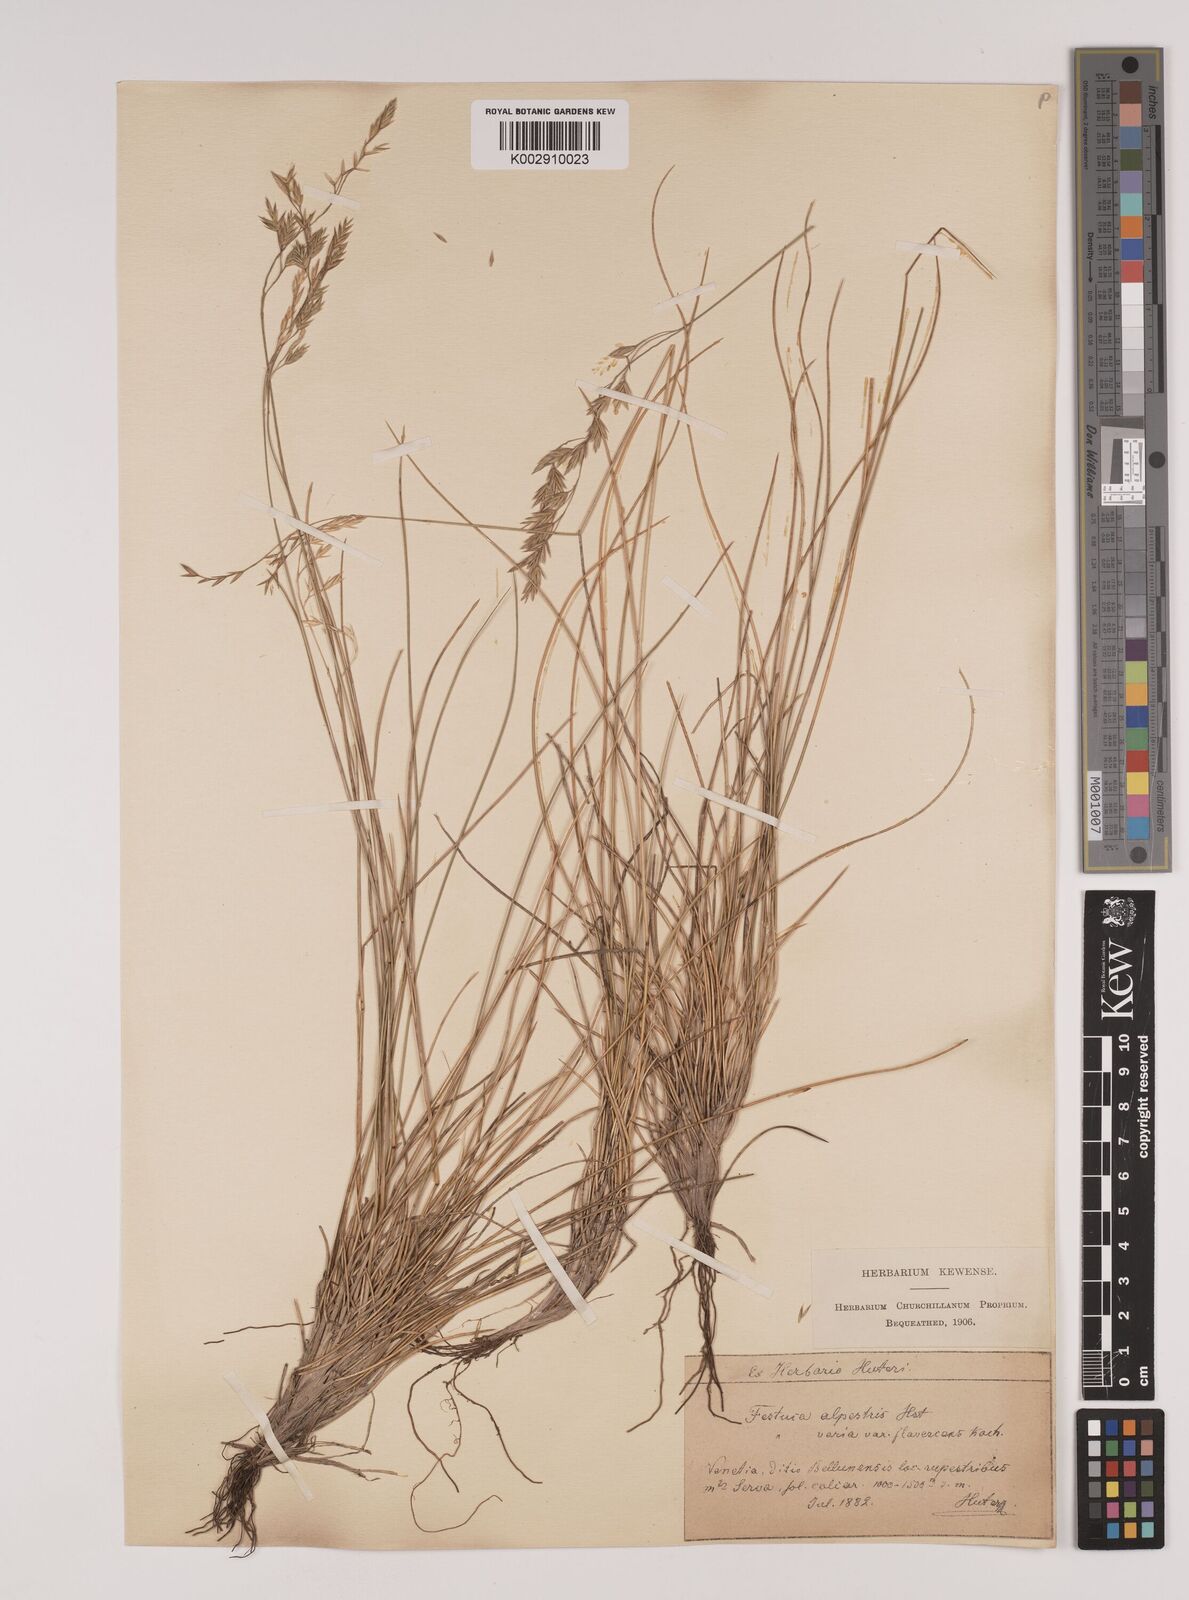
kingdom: Plantae
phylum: Tracheophyta
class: Liliopsida
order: Poales
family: Poaceae
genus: Festuca
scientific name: Festuca alpestris
